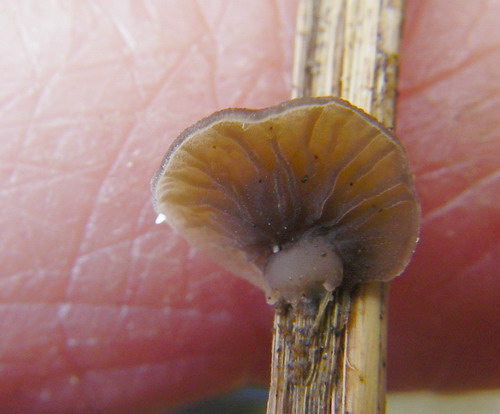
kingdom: Fungi
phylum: Basidiomycota
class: Agaricomycetes
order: Agaricales
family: Hygrophoraceae
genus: Arrhenia
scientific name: Arrhenia kuehneri
